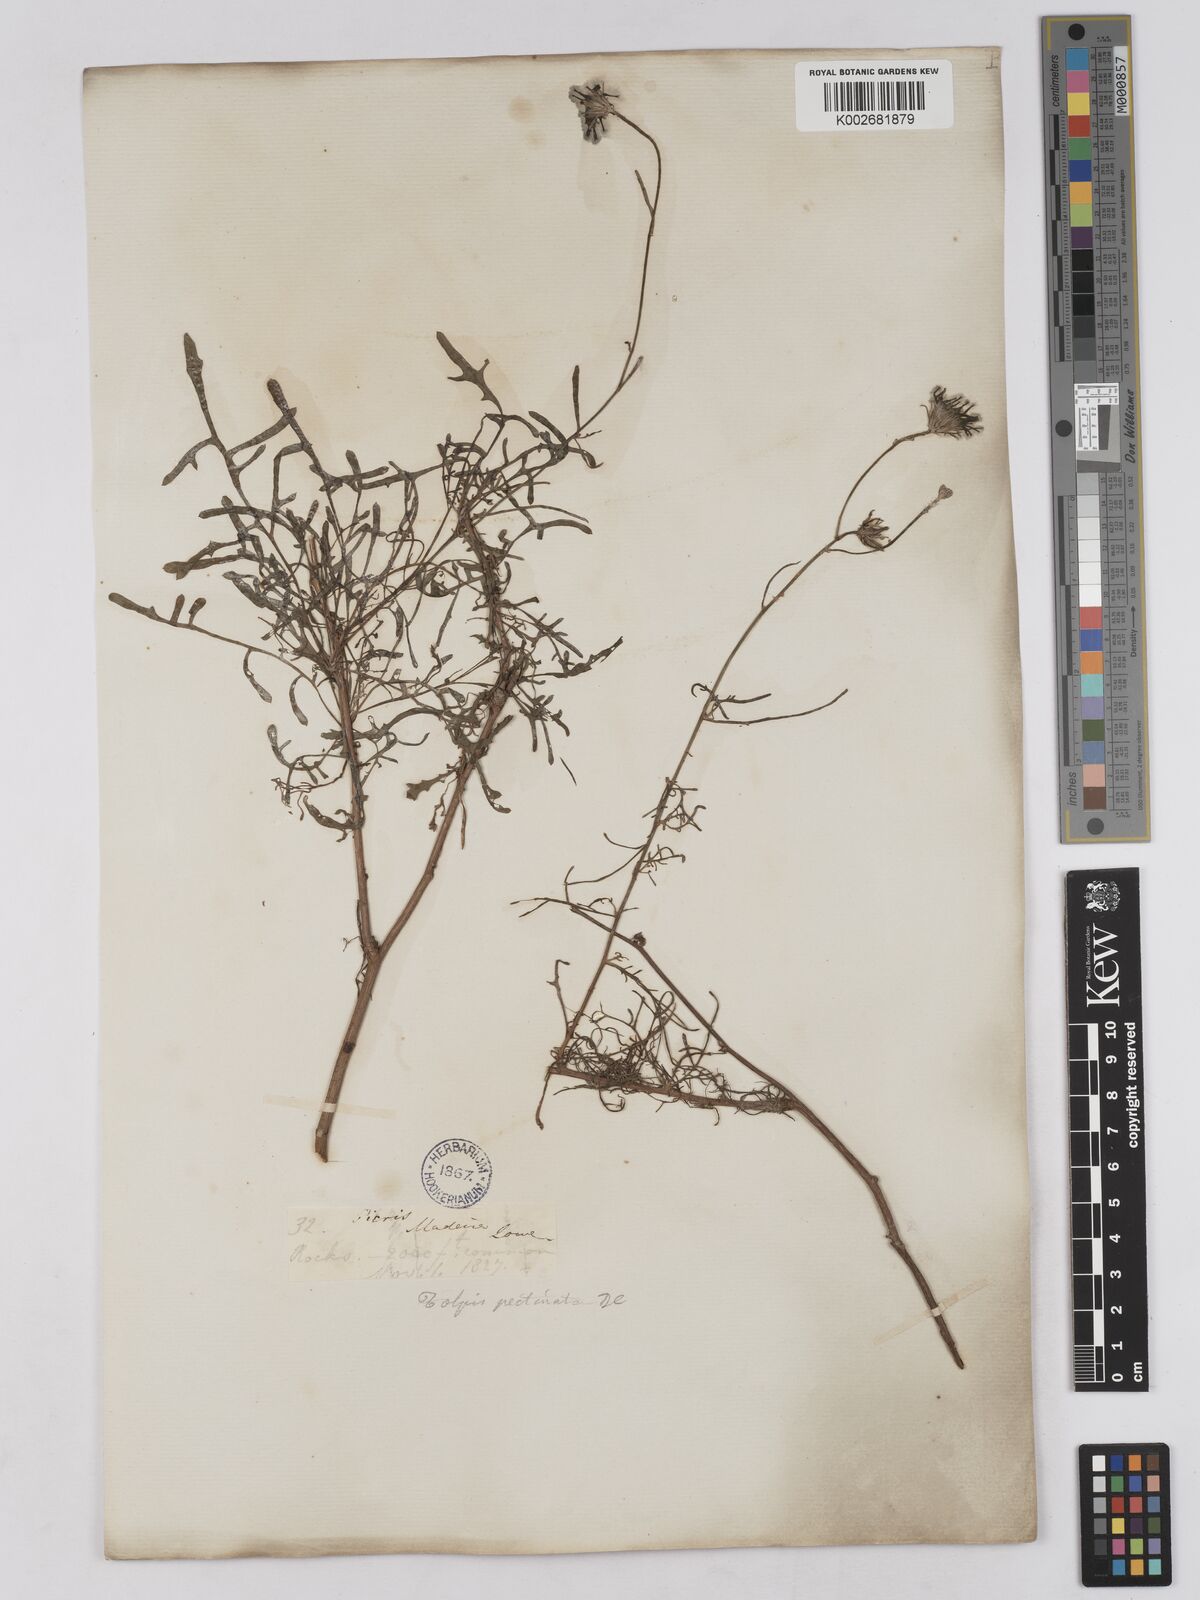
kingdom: Plantae
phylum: Tracheophyta
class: Magnoliopsida
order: Asterales
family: Asteraceae
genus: Tolpis
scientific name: Tolpis
